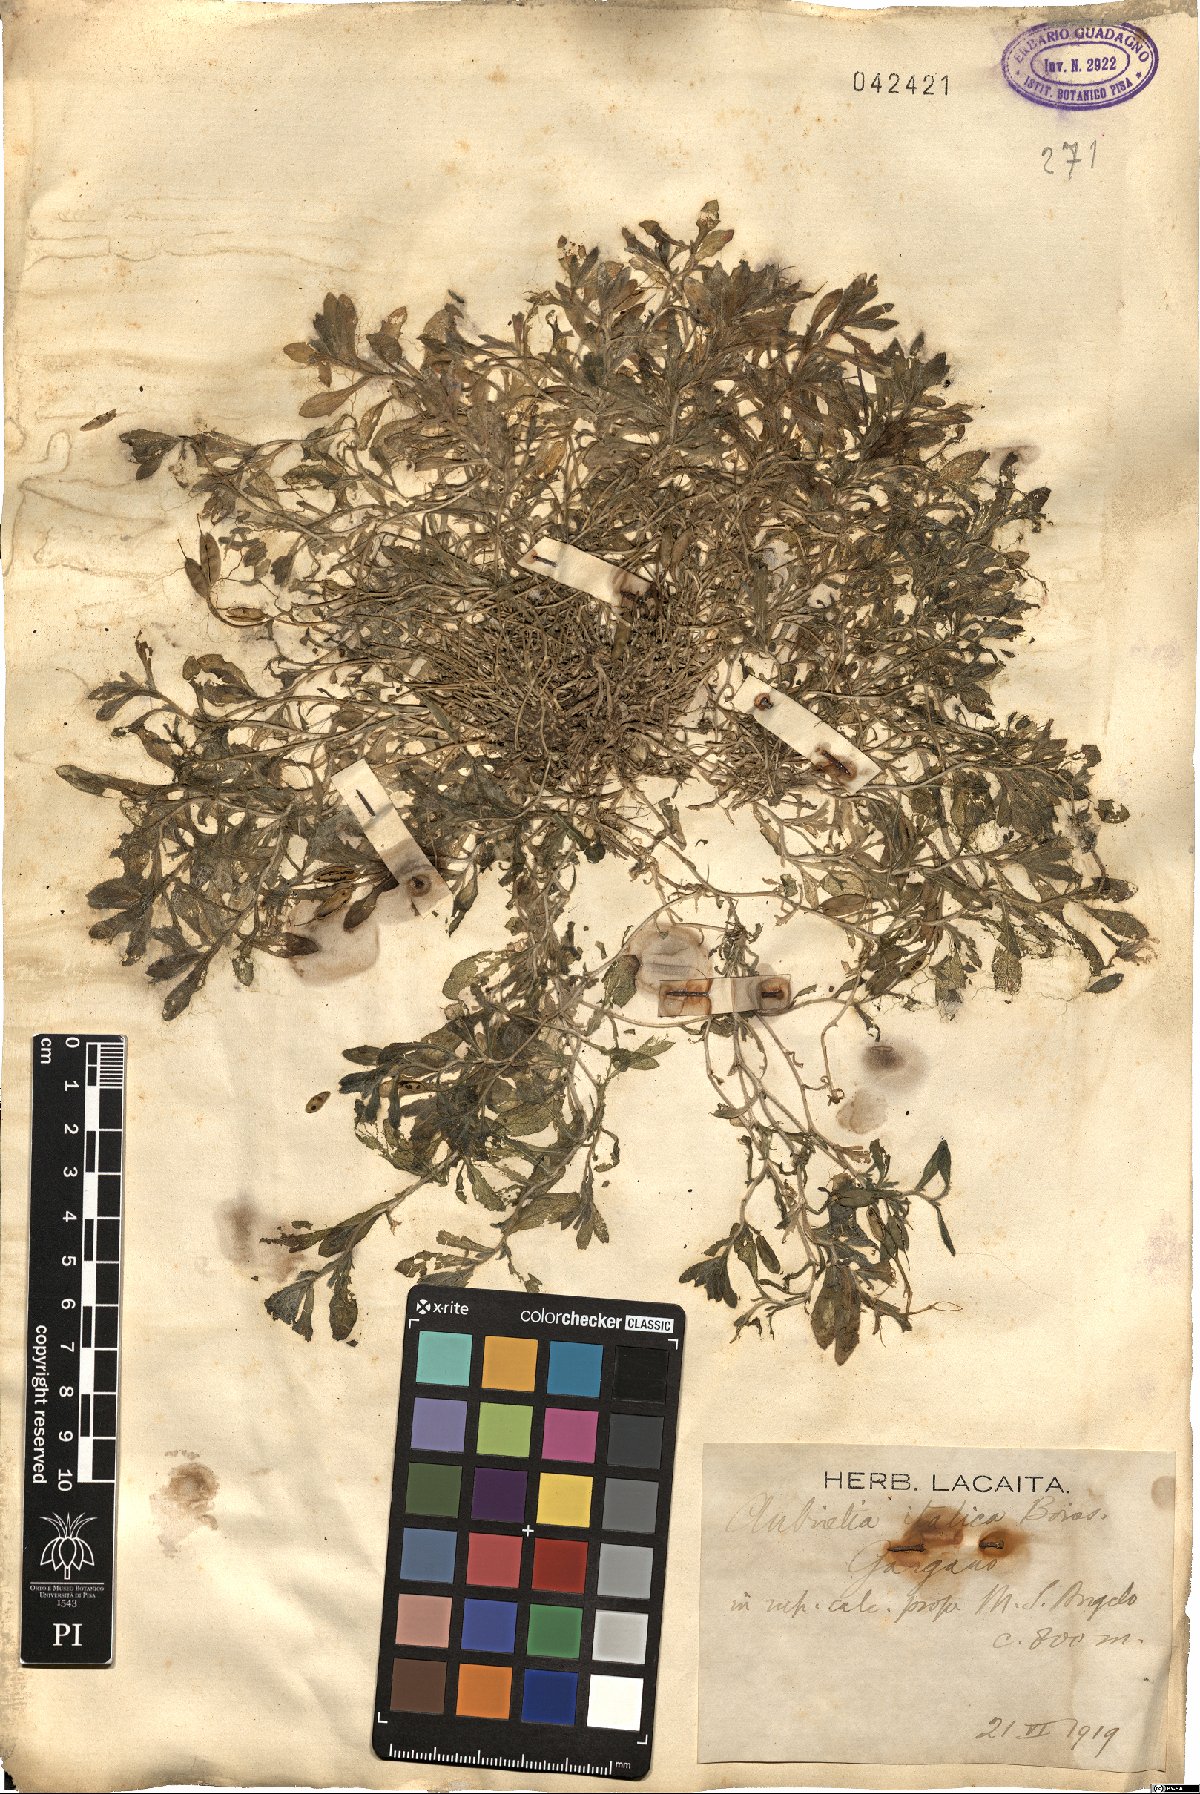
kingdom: Plantae
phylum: Tracheophyta
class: Magnoliopsida
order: Brassicales
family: Brassicaceae
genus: Aubrieta
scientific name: Aubrieta columnae
